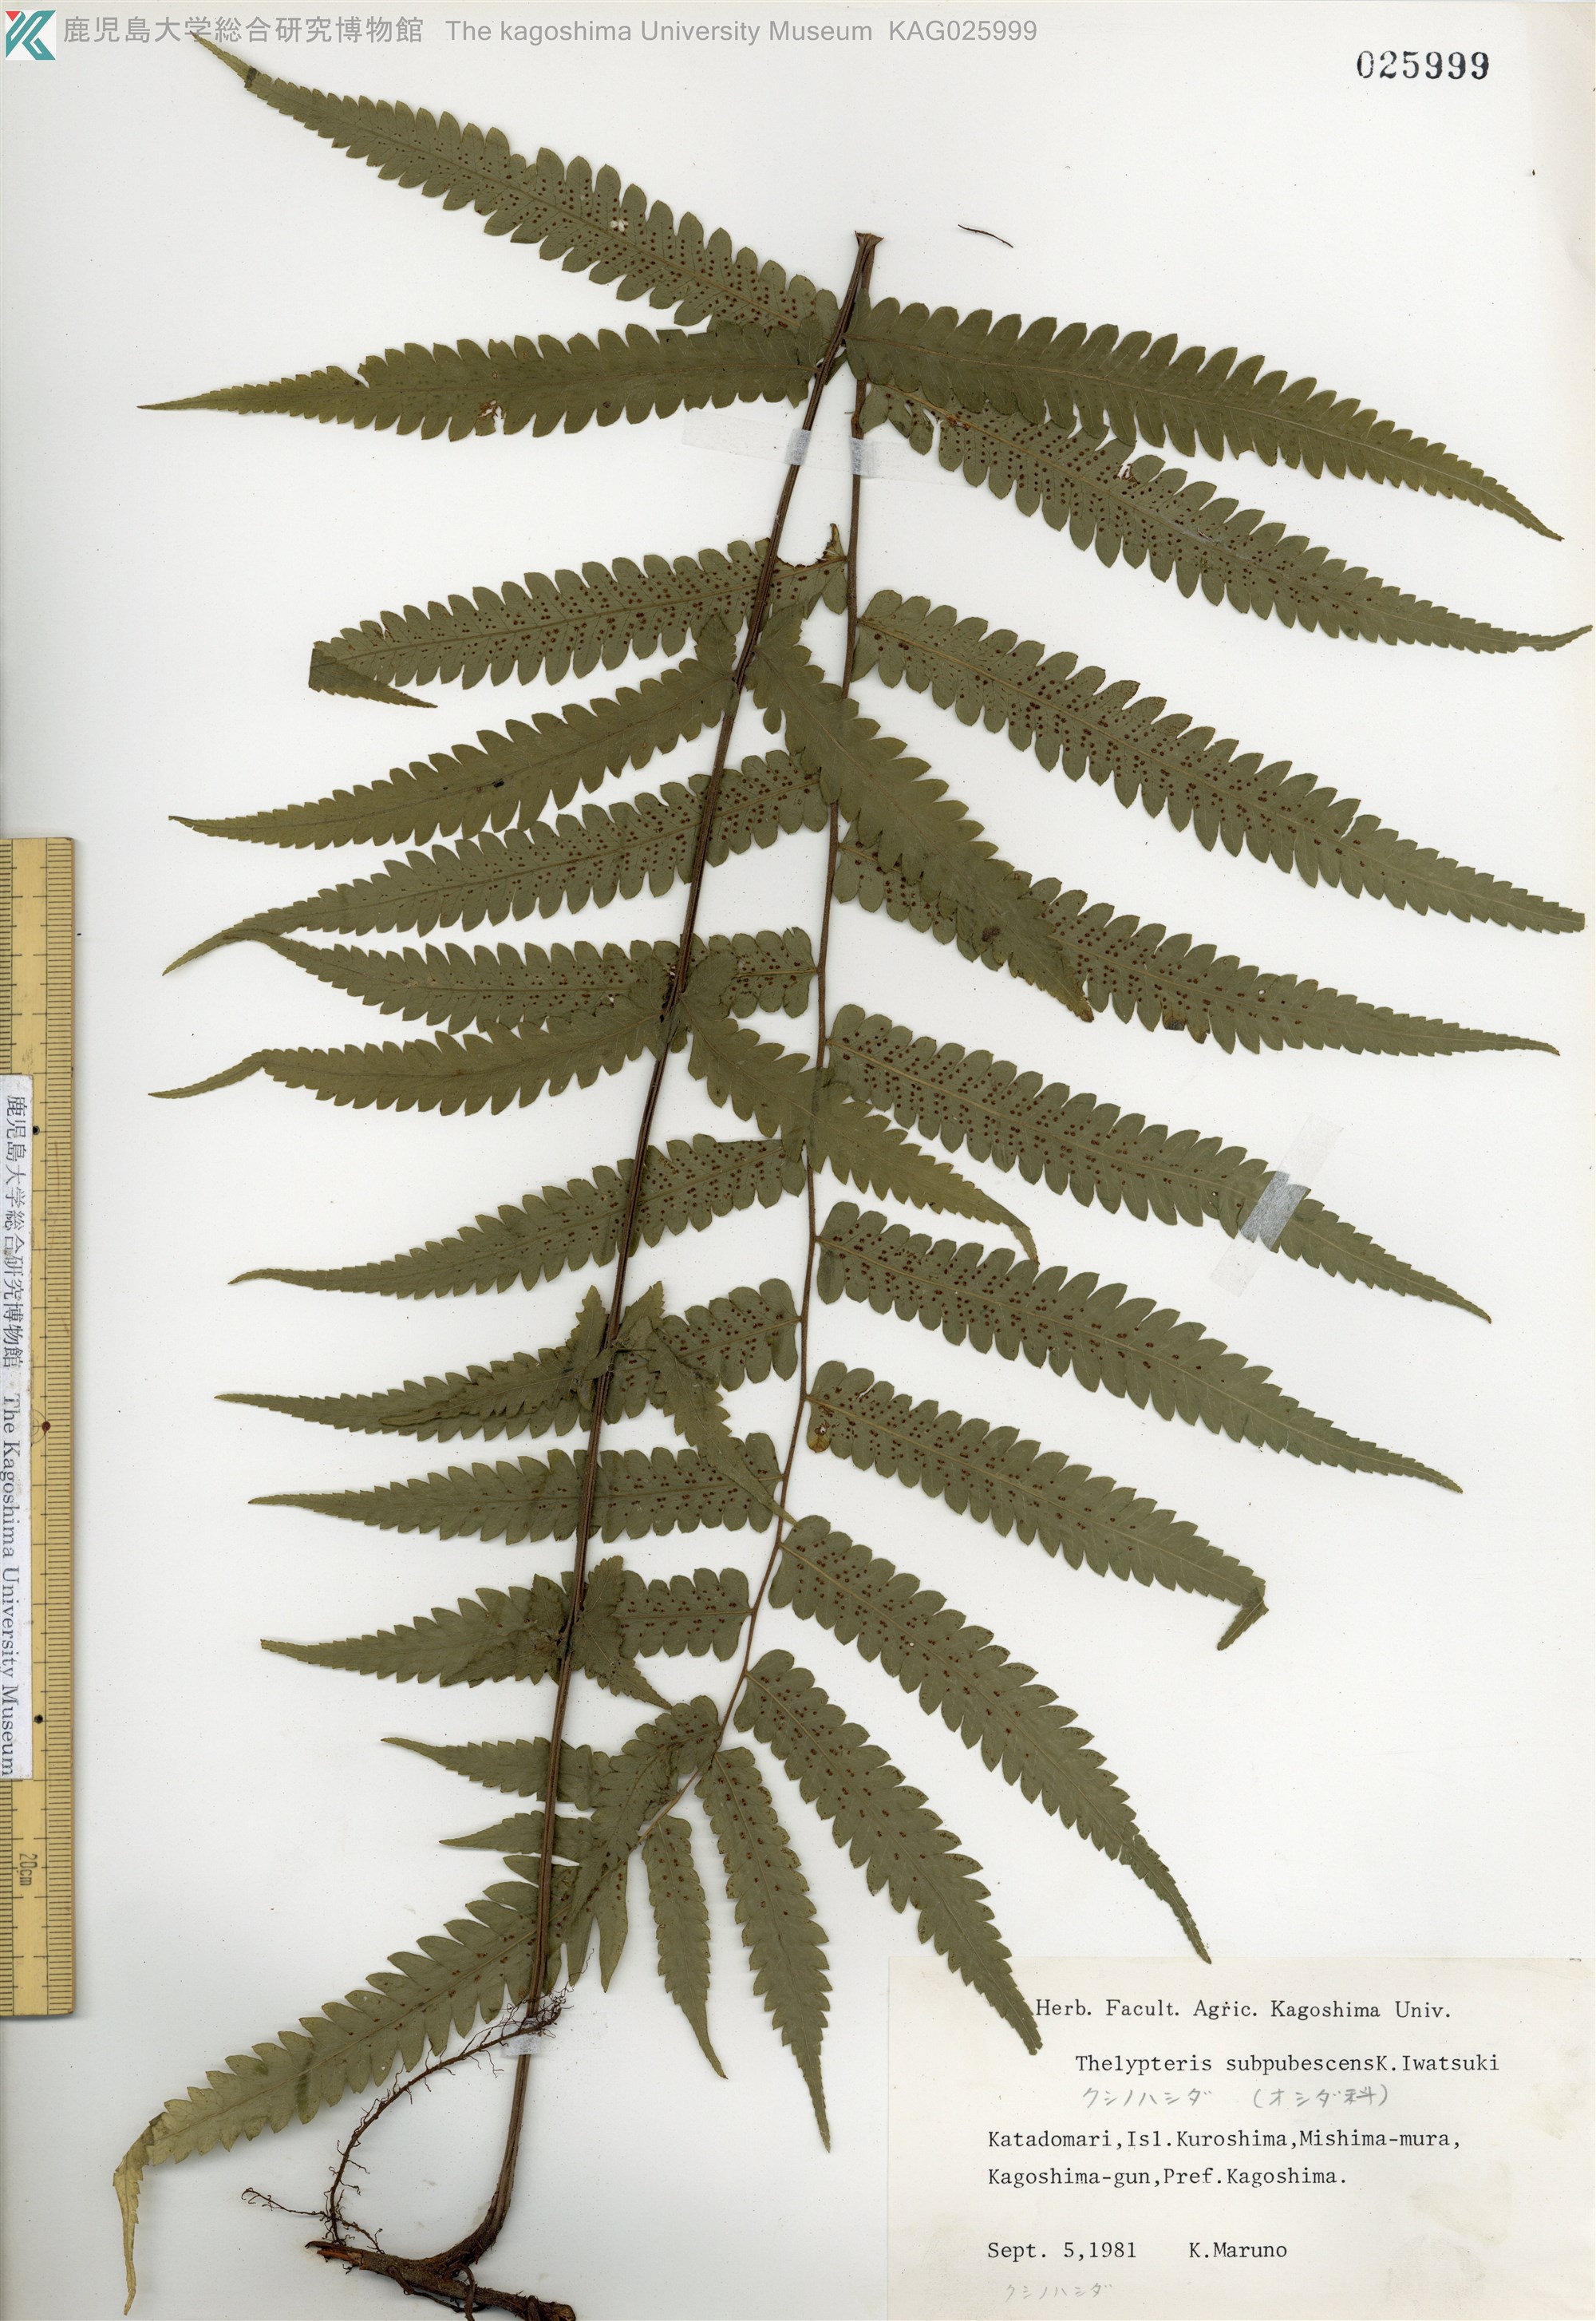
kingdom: Plantae
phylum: Tracheophyta
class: Polypodiopsida
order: Polypodiales
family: Thelypteridaceae
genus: Christella
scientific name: Christella jaculosa
